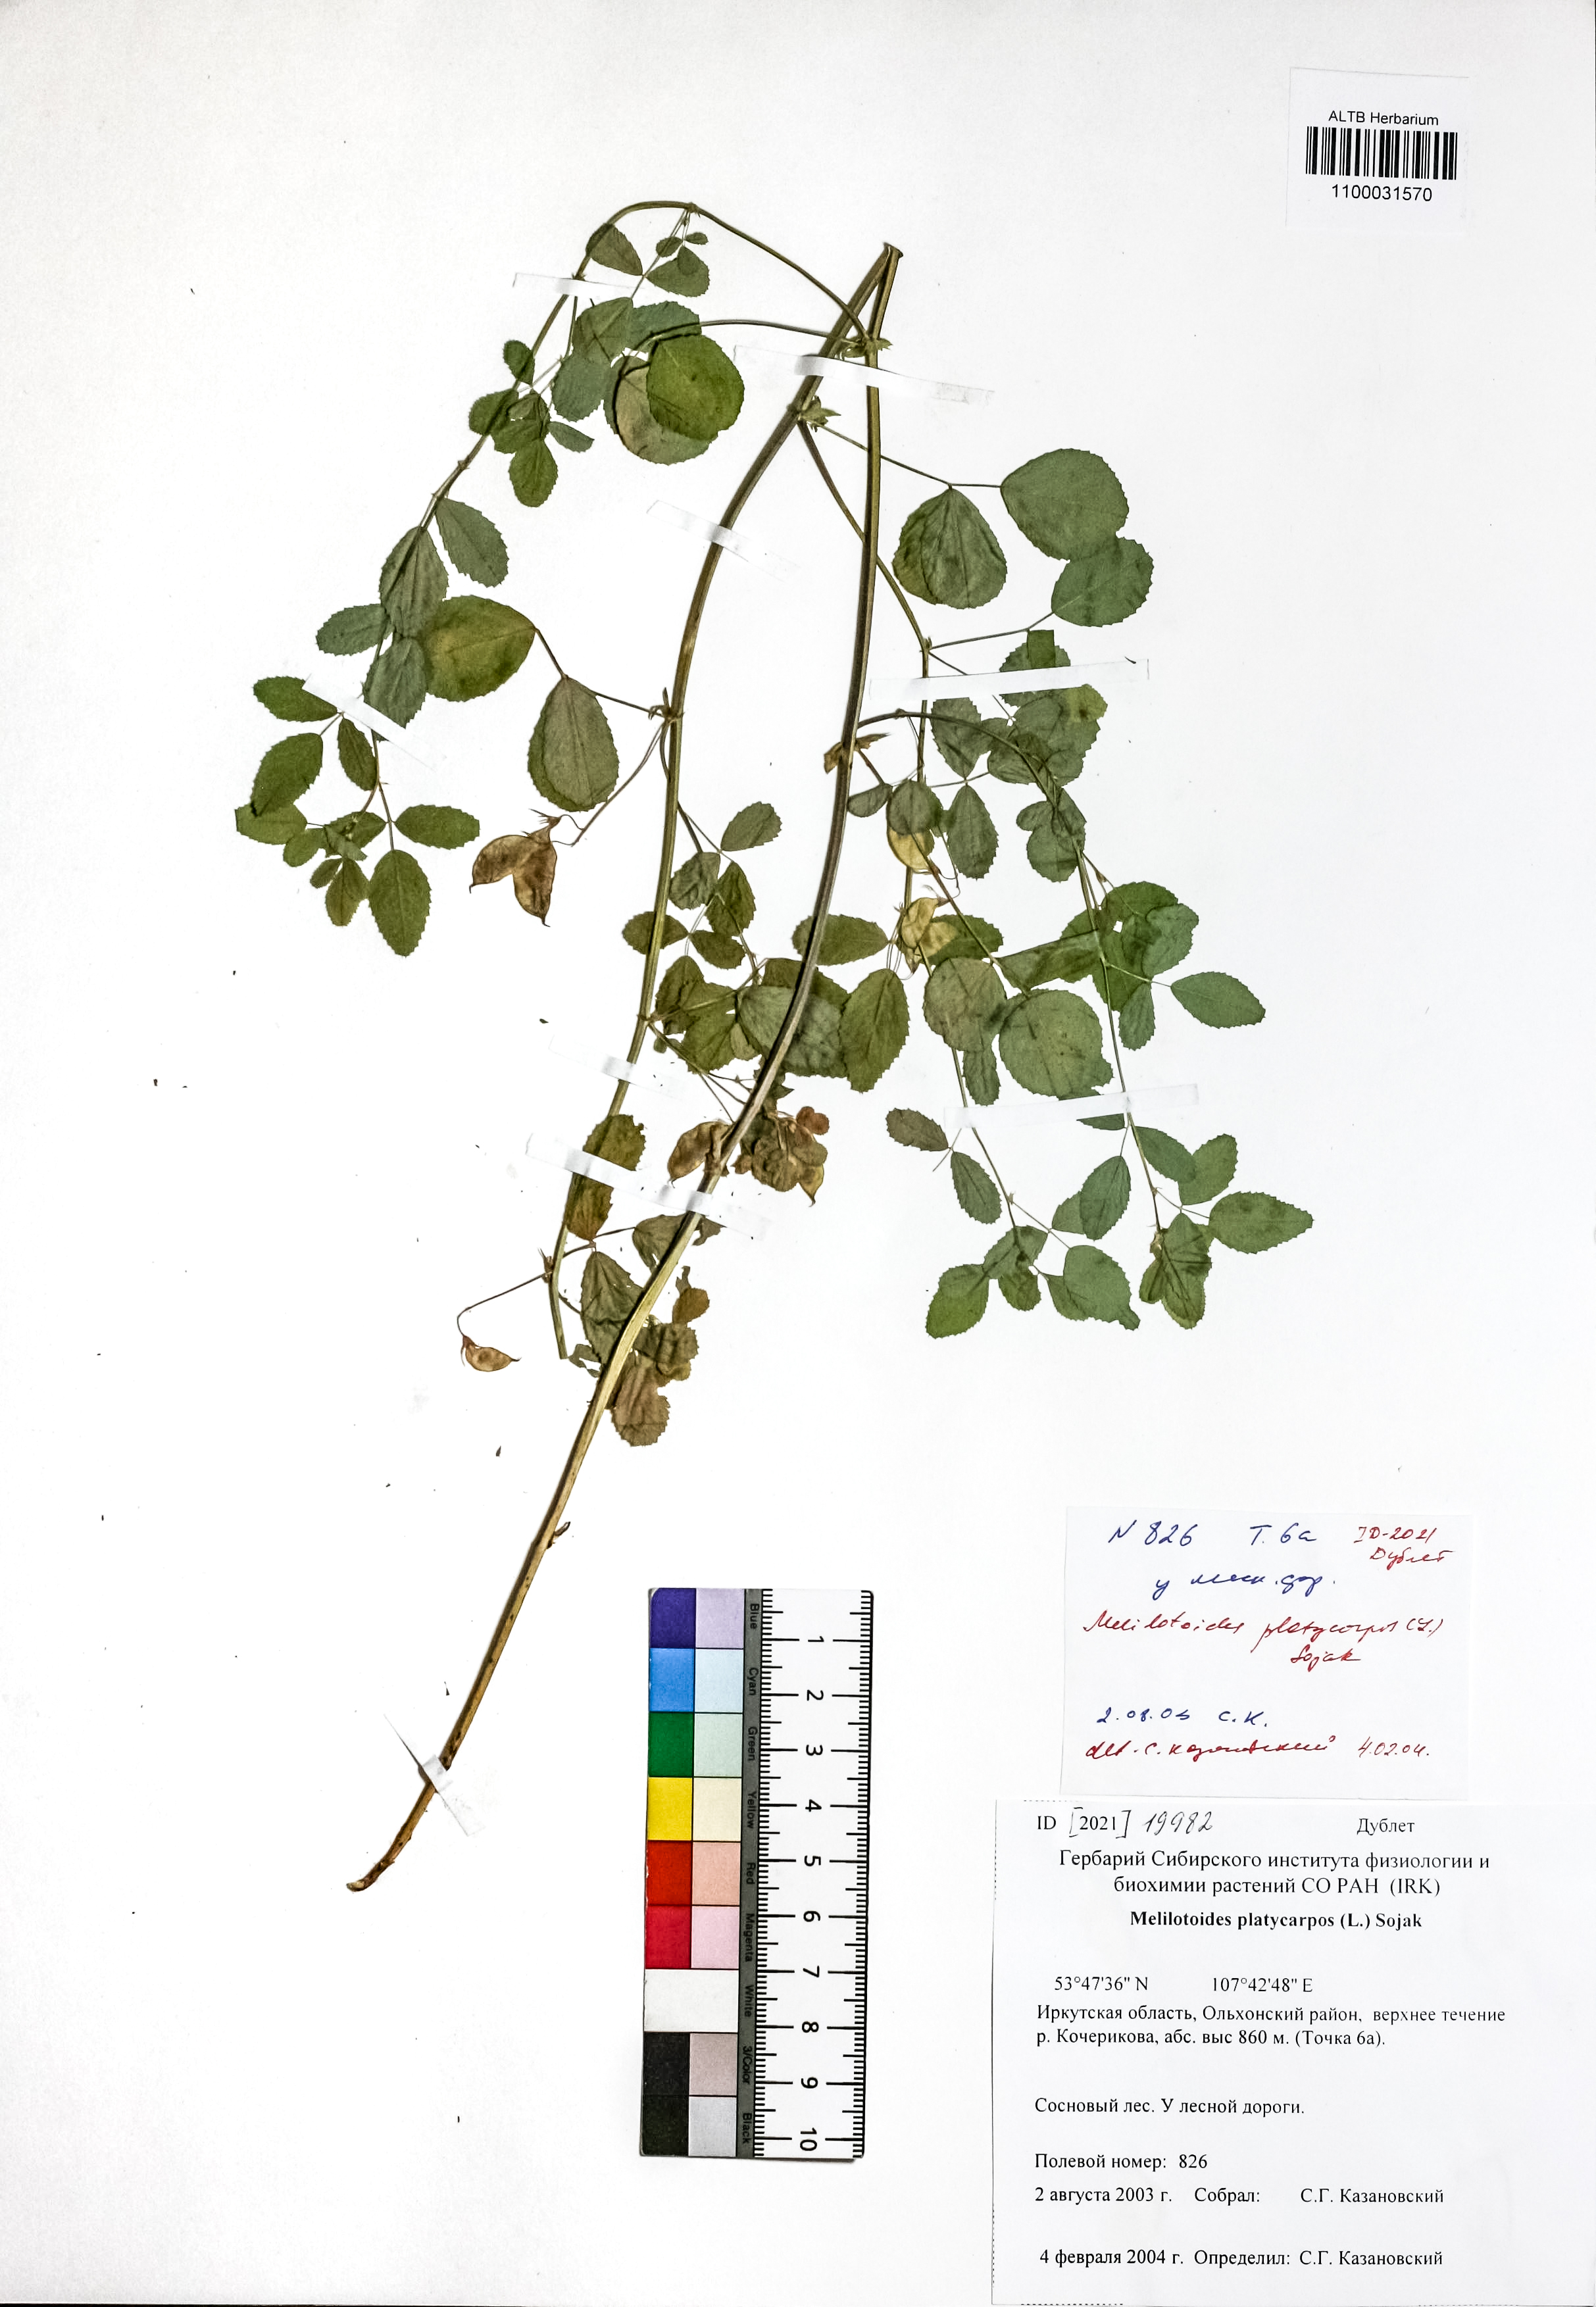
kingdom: Plantae
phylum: Tracheophyta
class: Magnoliopsida
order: Fabales
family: Fabaceae
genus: Medicago
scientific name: Medicago platycarpos
